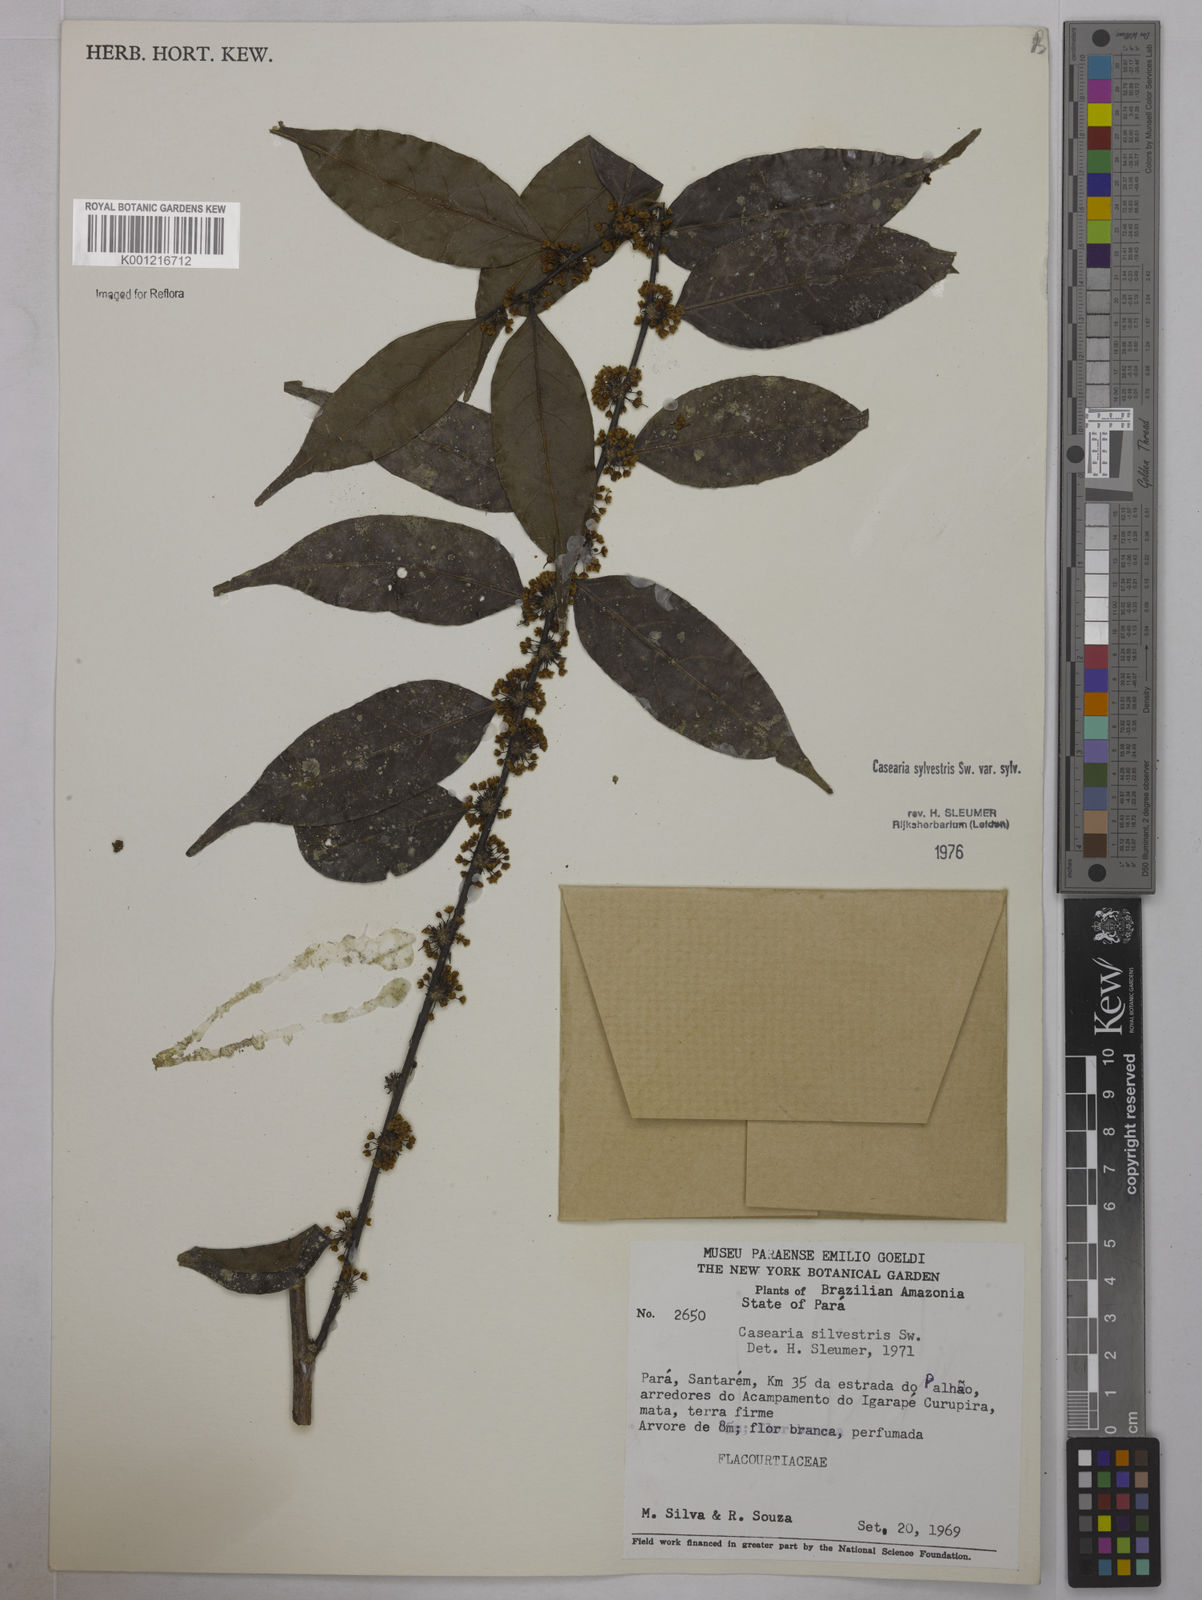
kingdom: Plantae
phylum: Tracheophyta
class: Magnoliopsida
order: Malpighiales
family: Salicaceae
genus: Casearia
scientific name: Casearia sylvestris
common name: Wild sage
